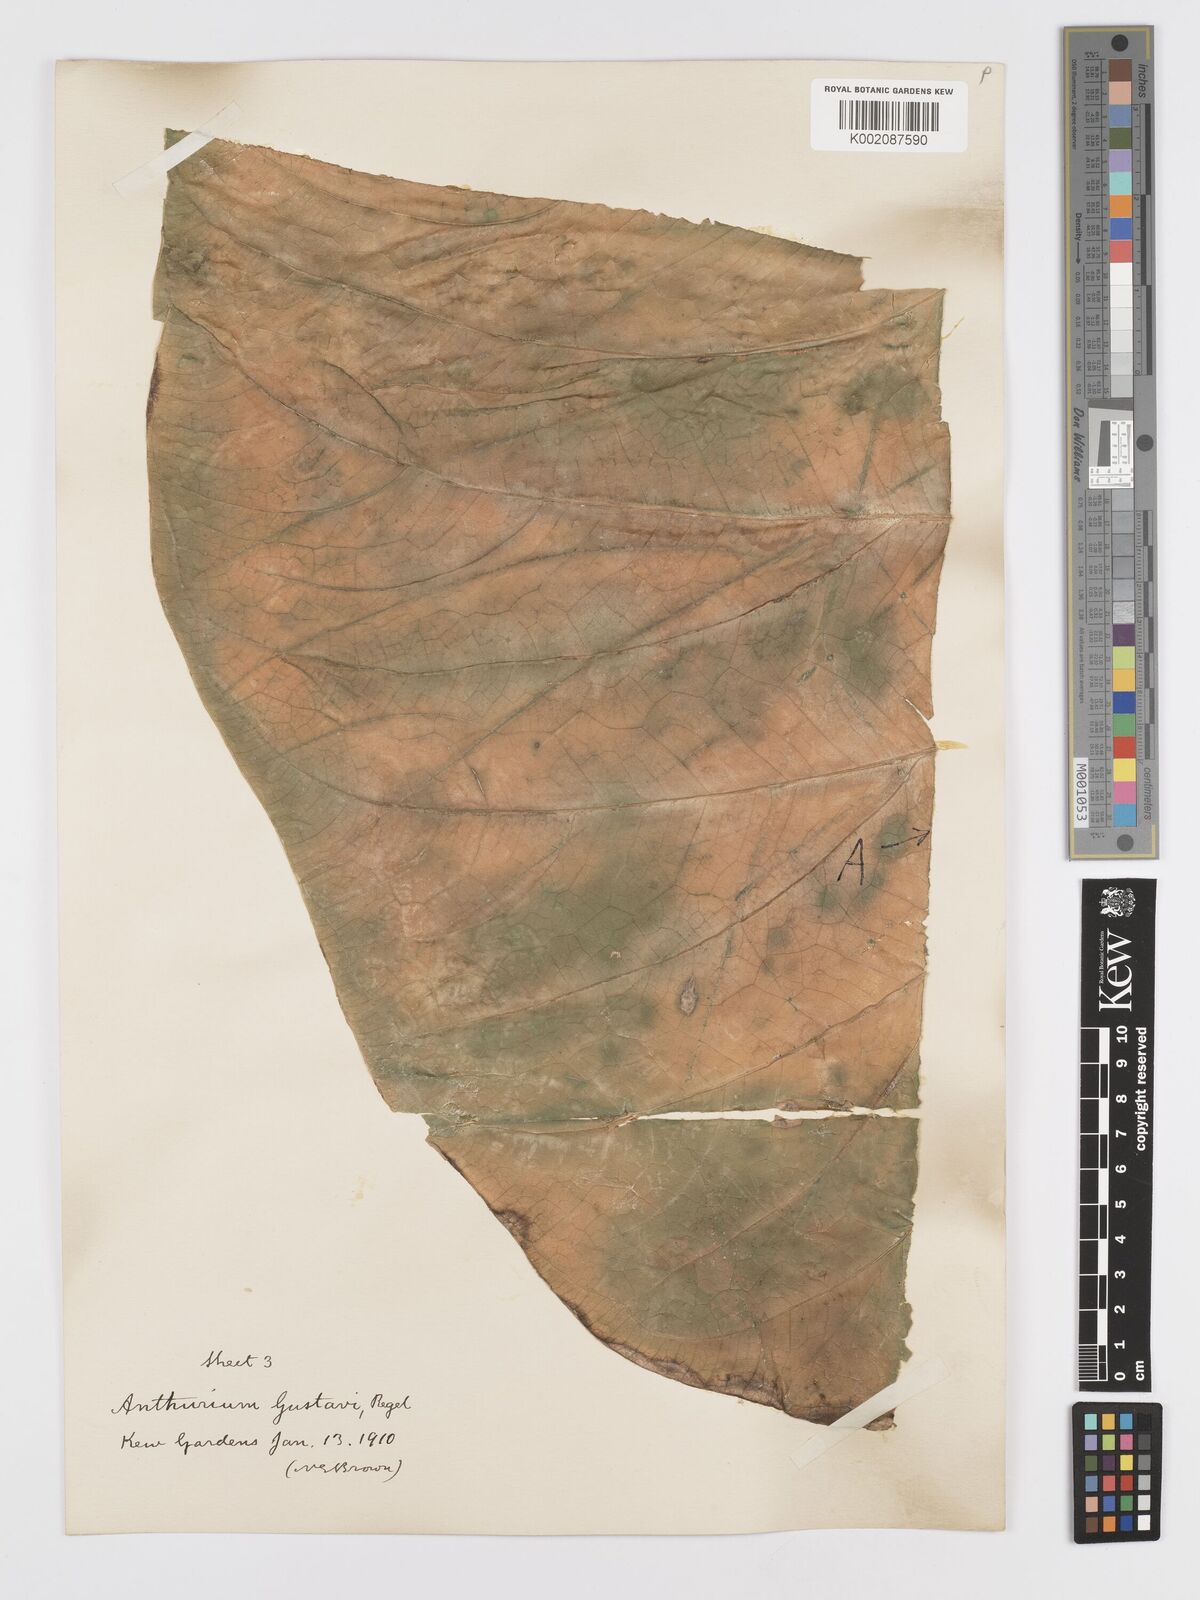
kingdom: Plantae
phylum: Tracheophyta
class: Liliopsida
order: Alismatales
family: Araceae
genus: Anthurium
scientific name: Anthurium gustavii
